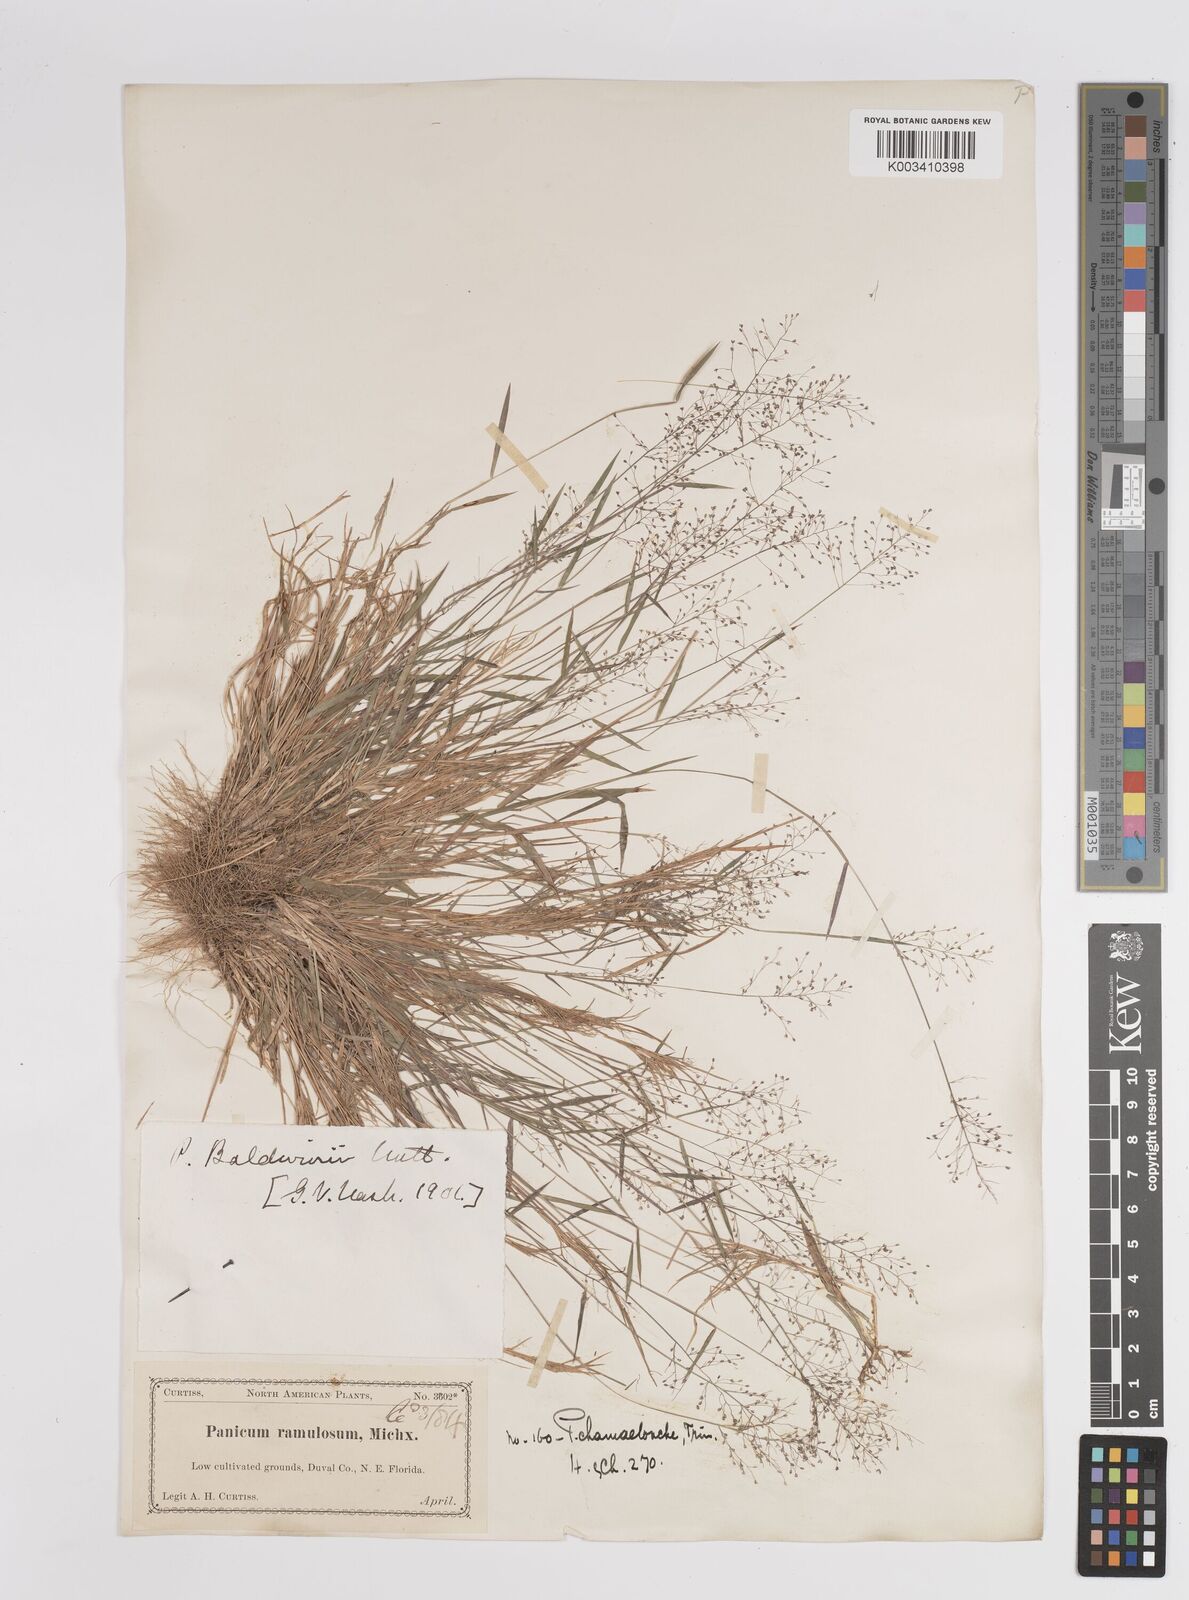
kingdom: Plantae
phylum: Tracheophyta
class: Liliopsida
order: Poales
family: Poaceae
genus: Dichanthelium
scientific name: Dichanthelium chamaelonche
